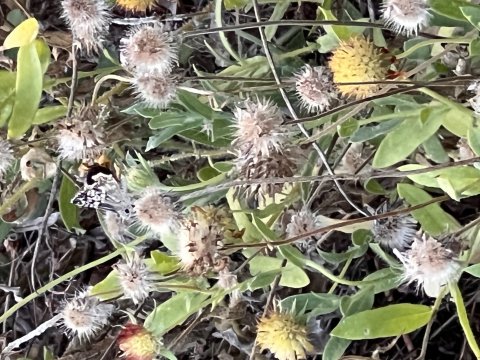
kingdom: Animalia
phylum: Arthropoda
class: Insecta
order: Lepidoptera
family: Hesperiidae
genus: Pyrgus
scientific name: Pyrgus oileus
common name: Tropical Checkered-Skipper
